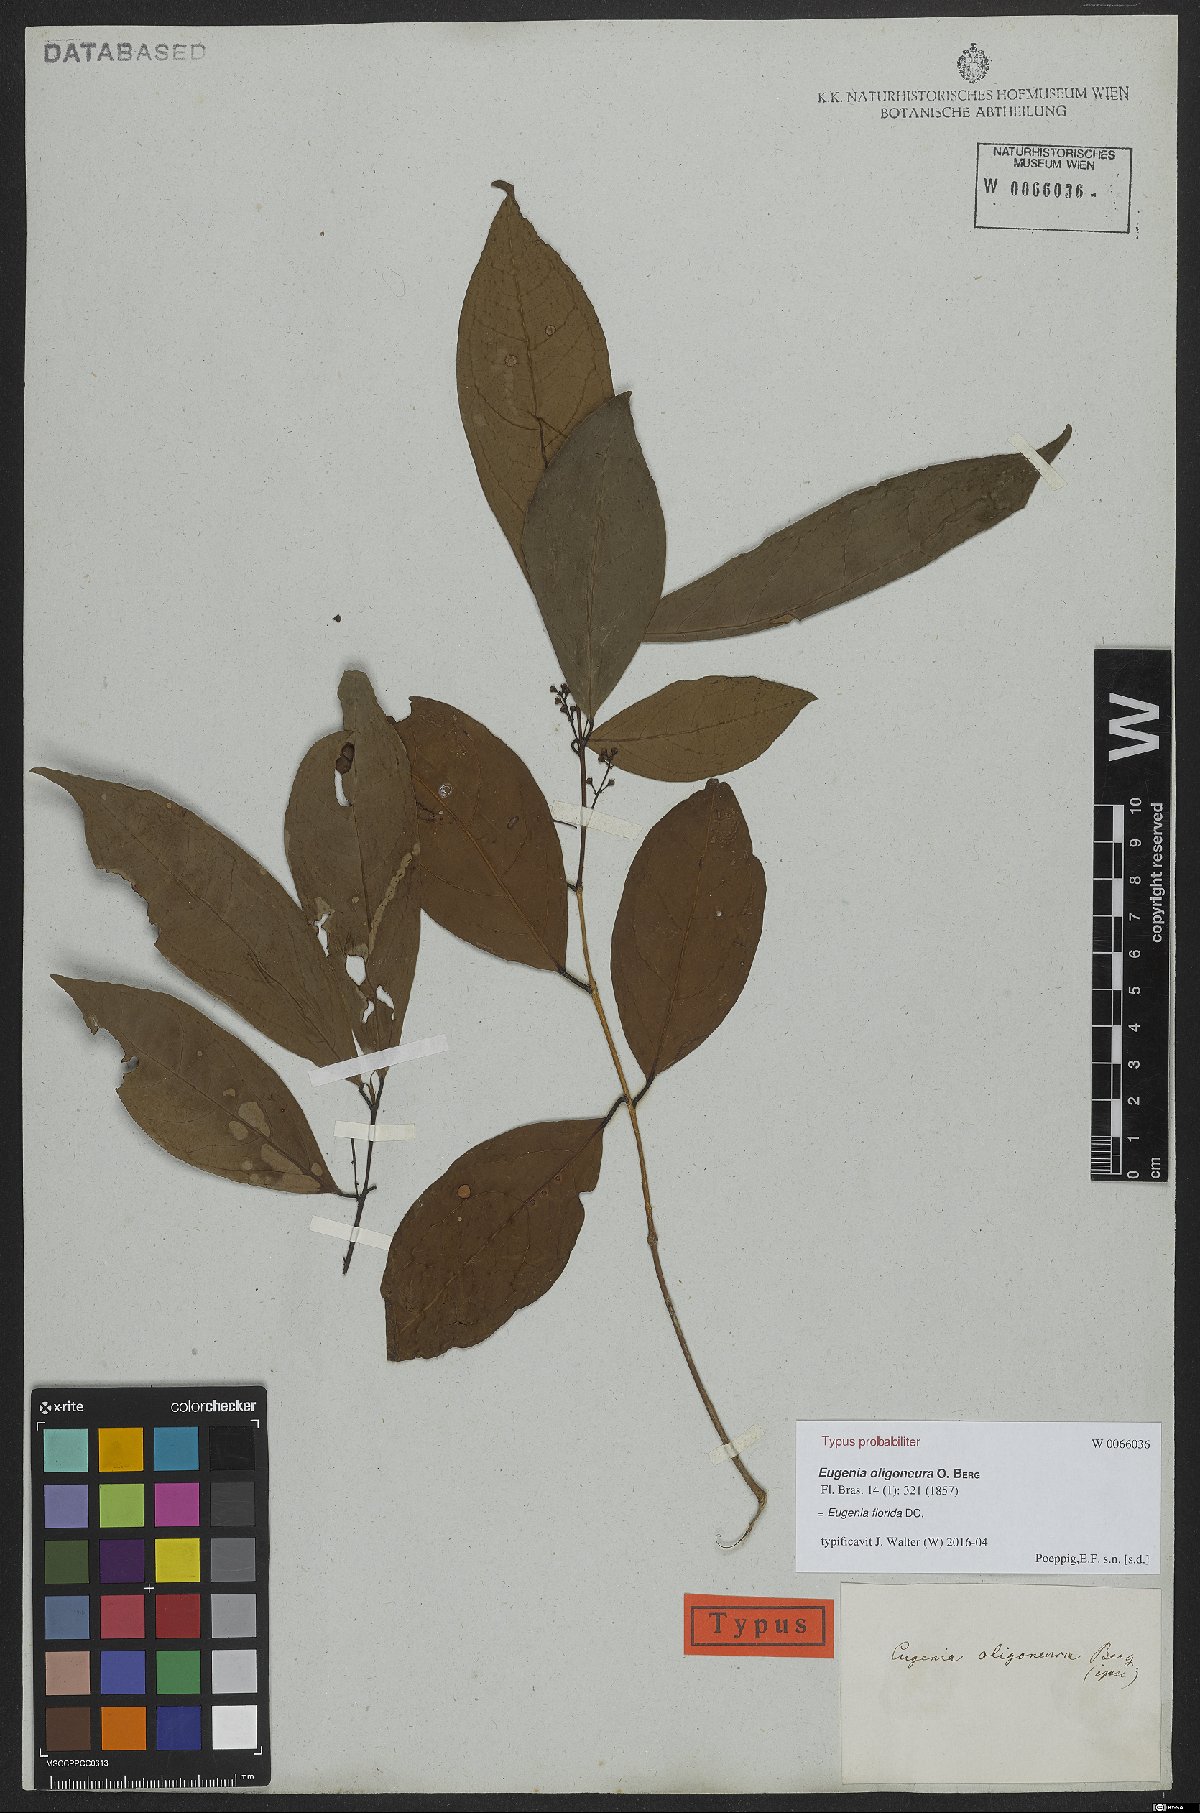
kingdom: Plantae
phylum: Tracheophyta
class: Magnoliopsida
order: Myrtales
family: Myrtaceae
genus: Eugenia
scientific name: Eugenia florida
